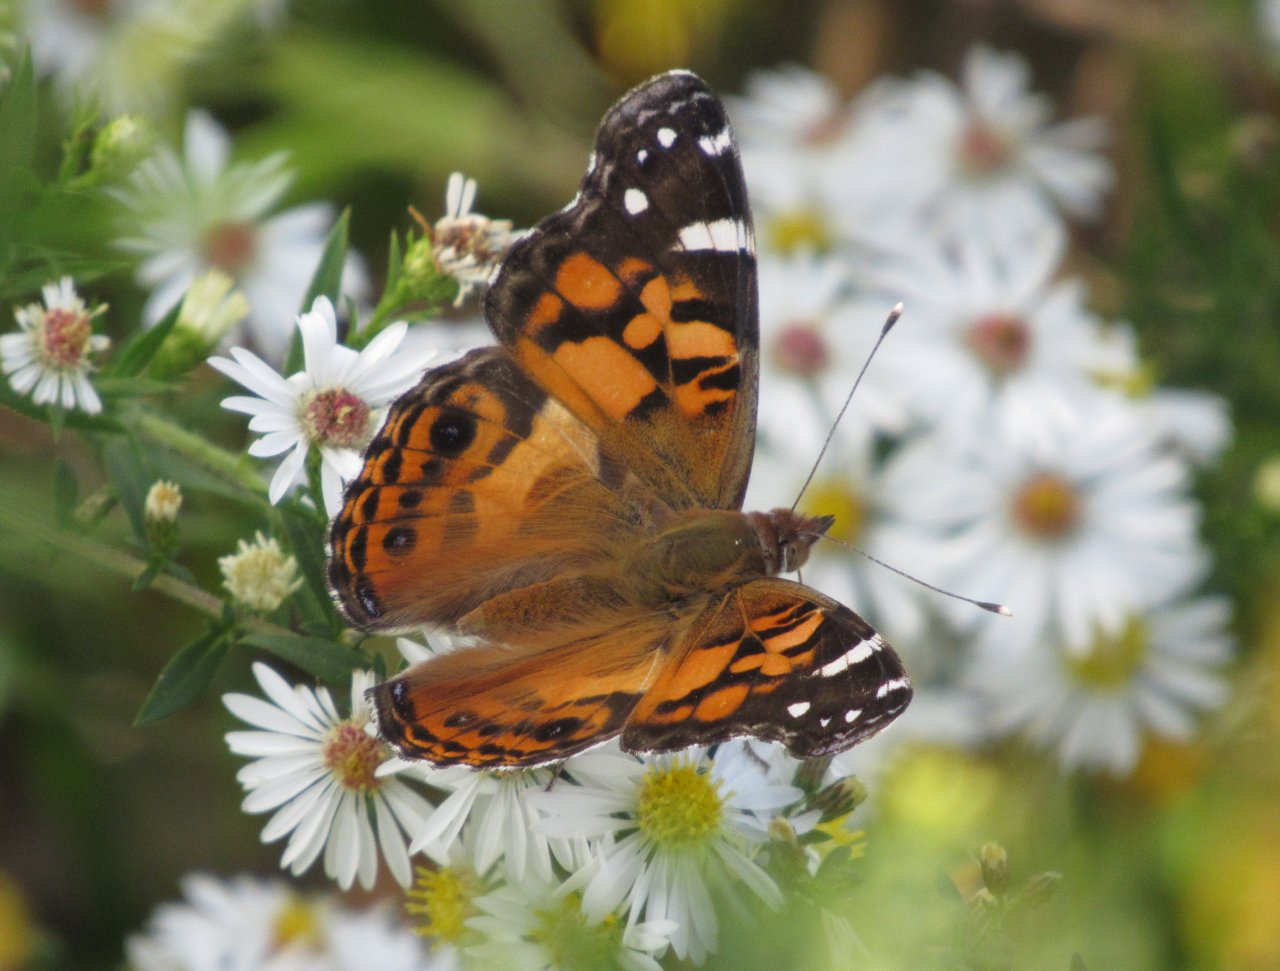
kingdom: Animalia
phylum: Arthropoda
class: Insecta
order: Lepidoptera
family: Nymphalidae
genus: Vanessa
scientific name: Vanessa virginiensis
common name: American Lady
